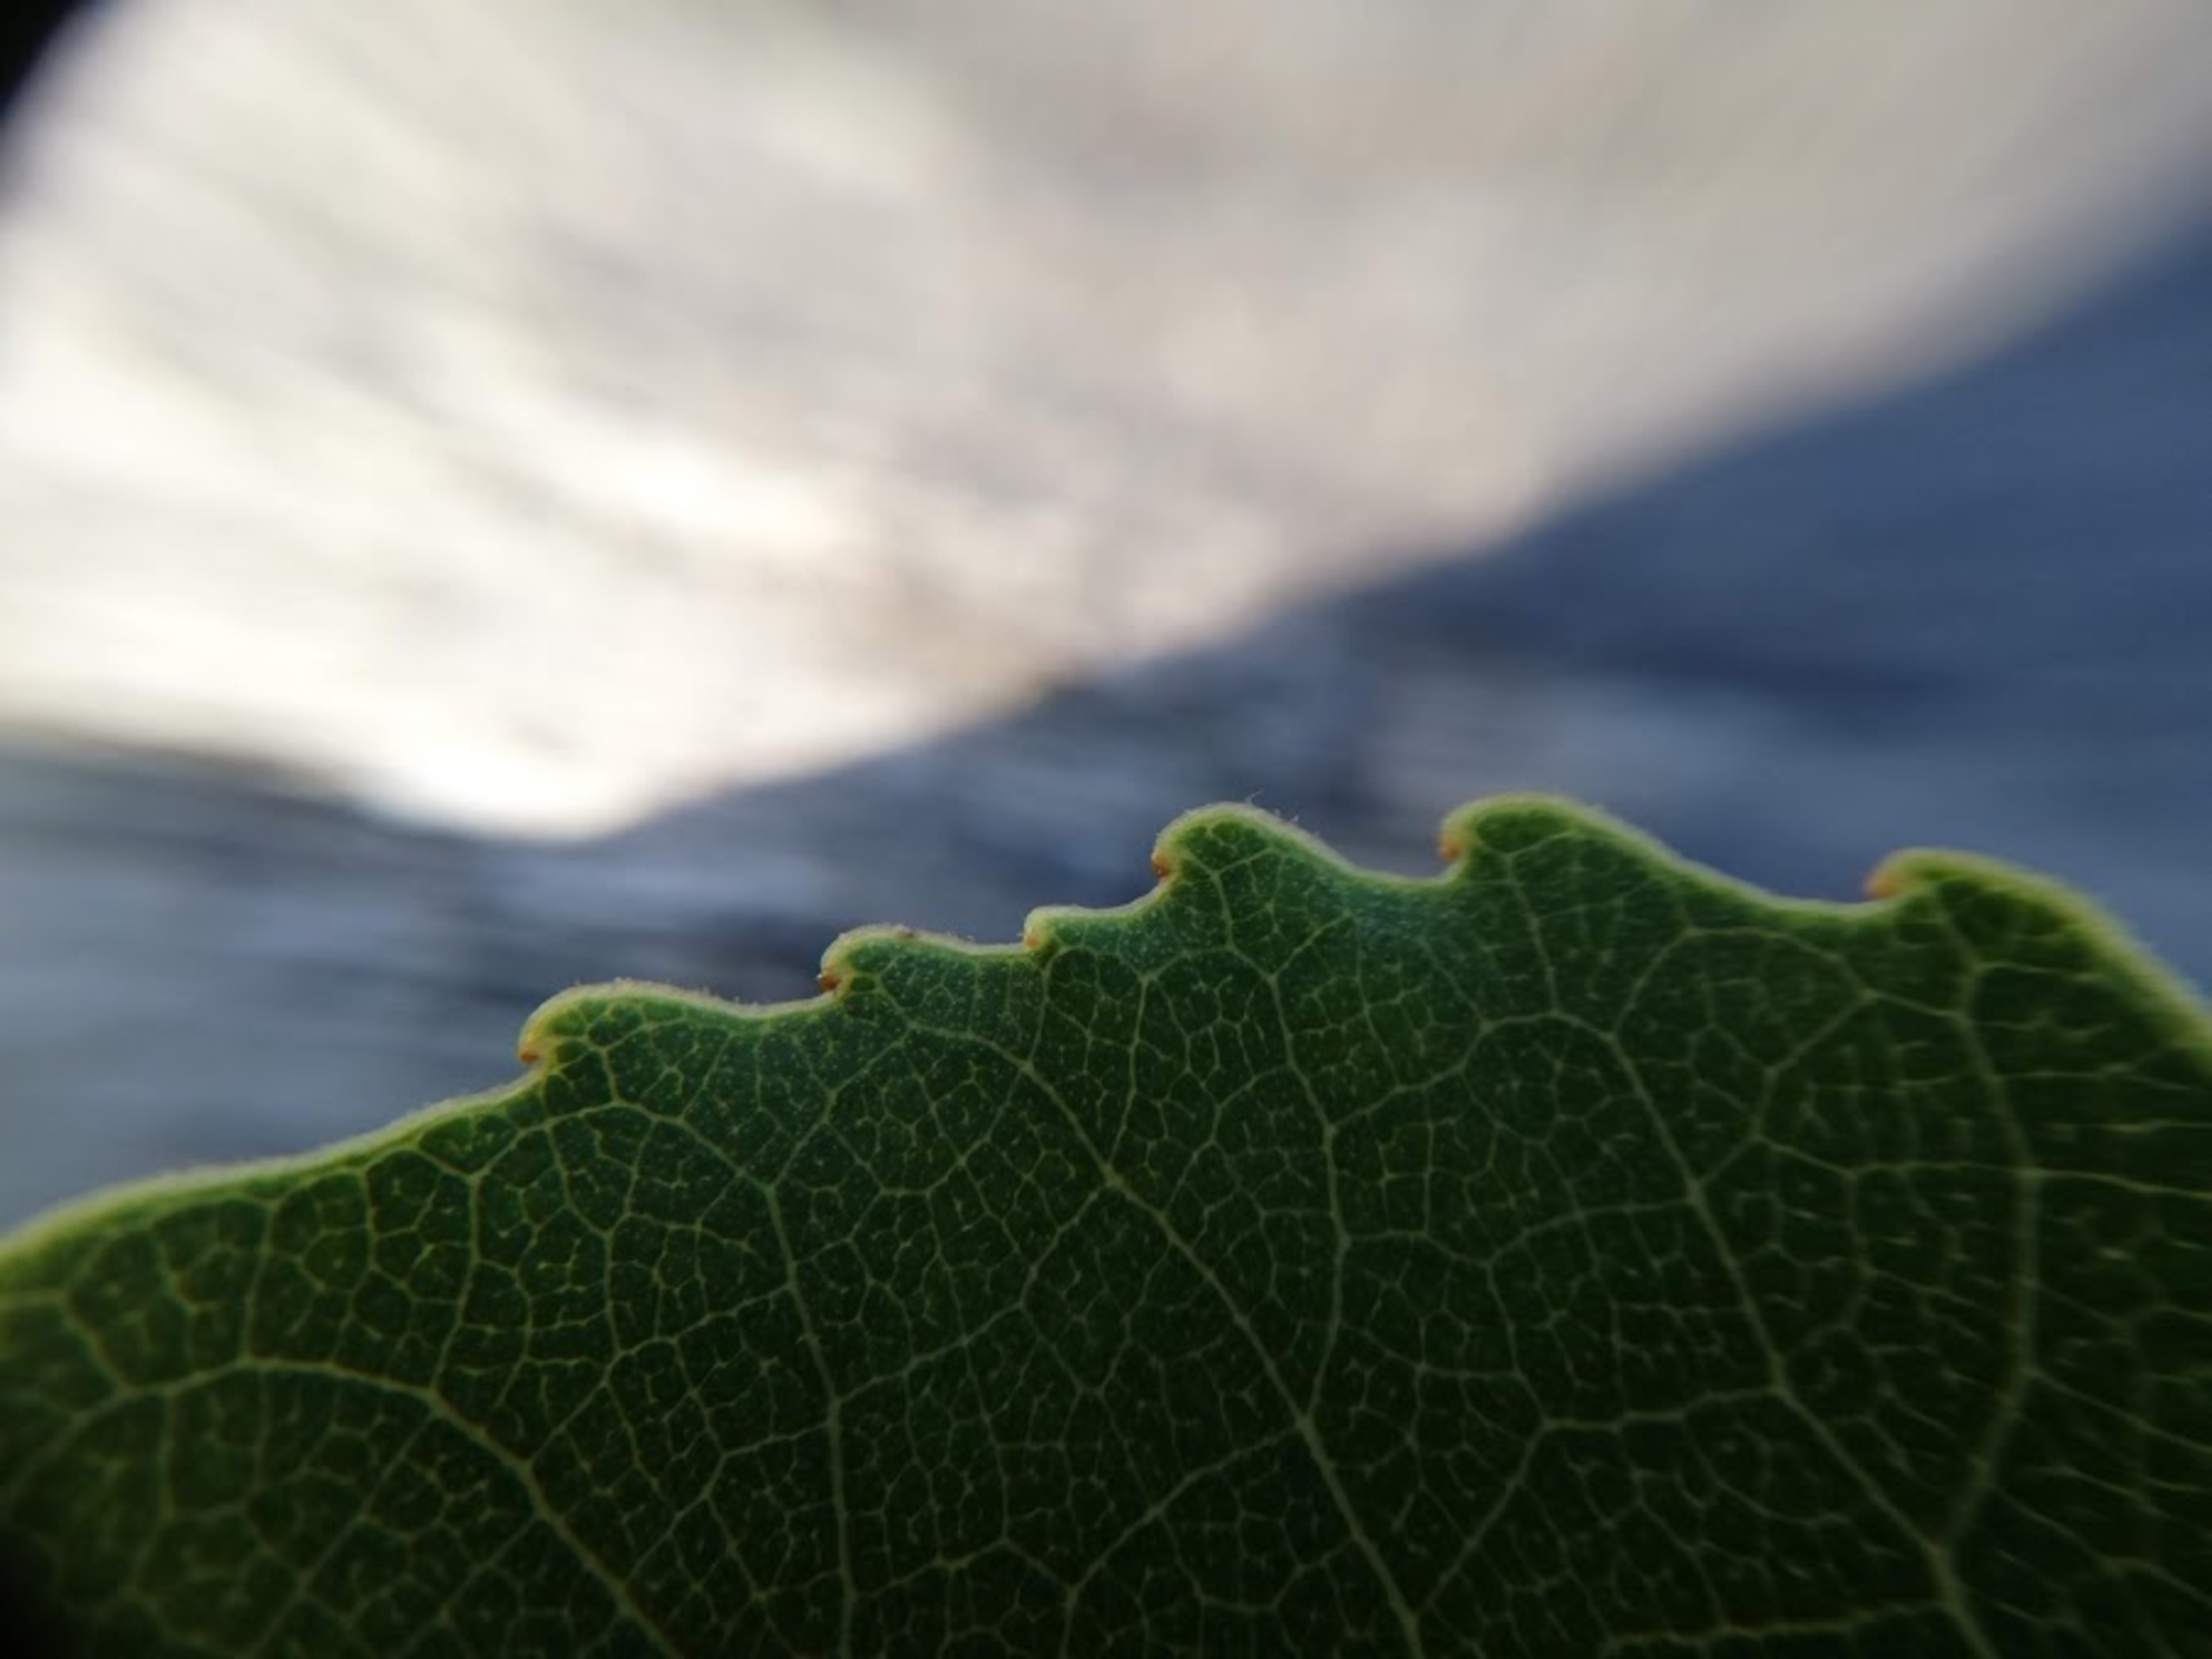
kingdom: Plantae
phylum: Tracheophyta
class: Magnoliopsida
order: Malpighiales
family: Salicaceae
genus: Populus
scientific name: Populus canadensis
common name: Canadisk poppel
